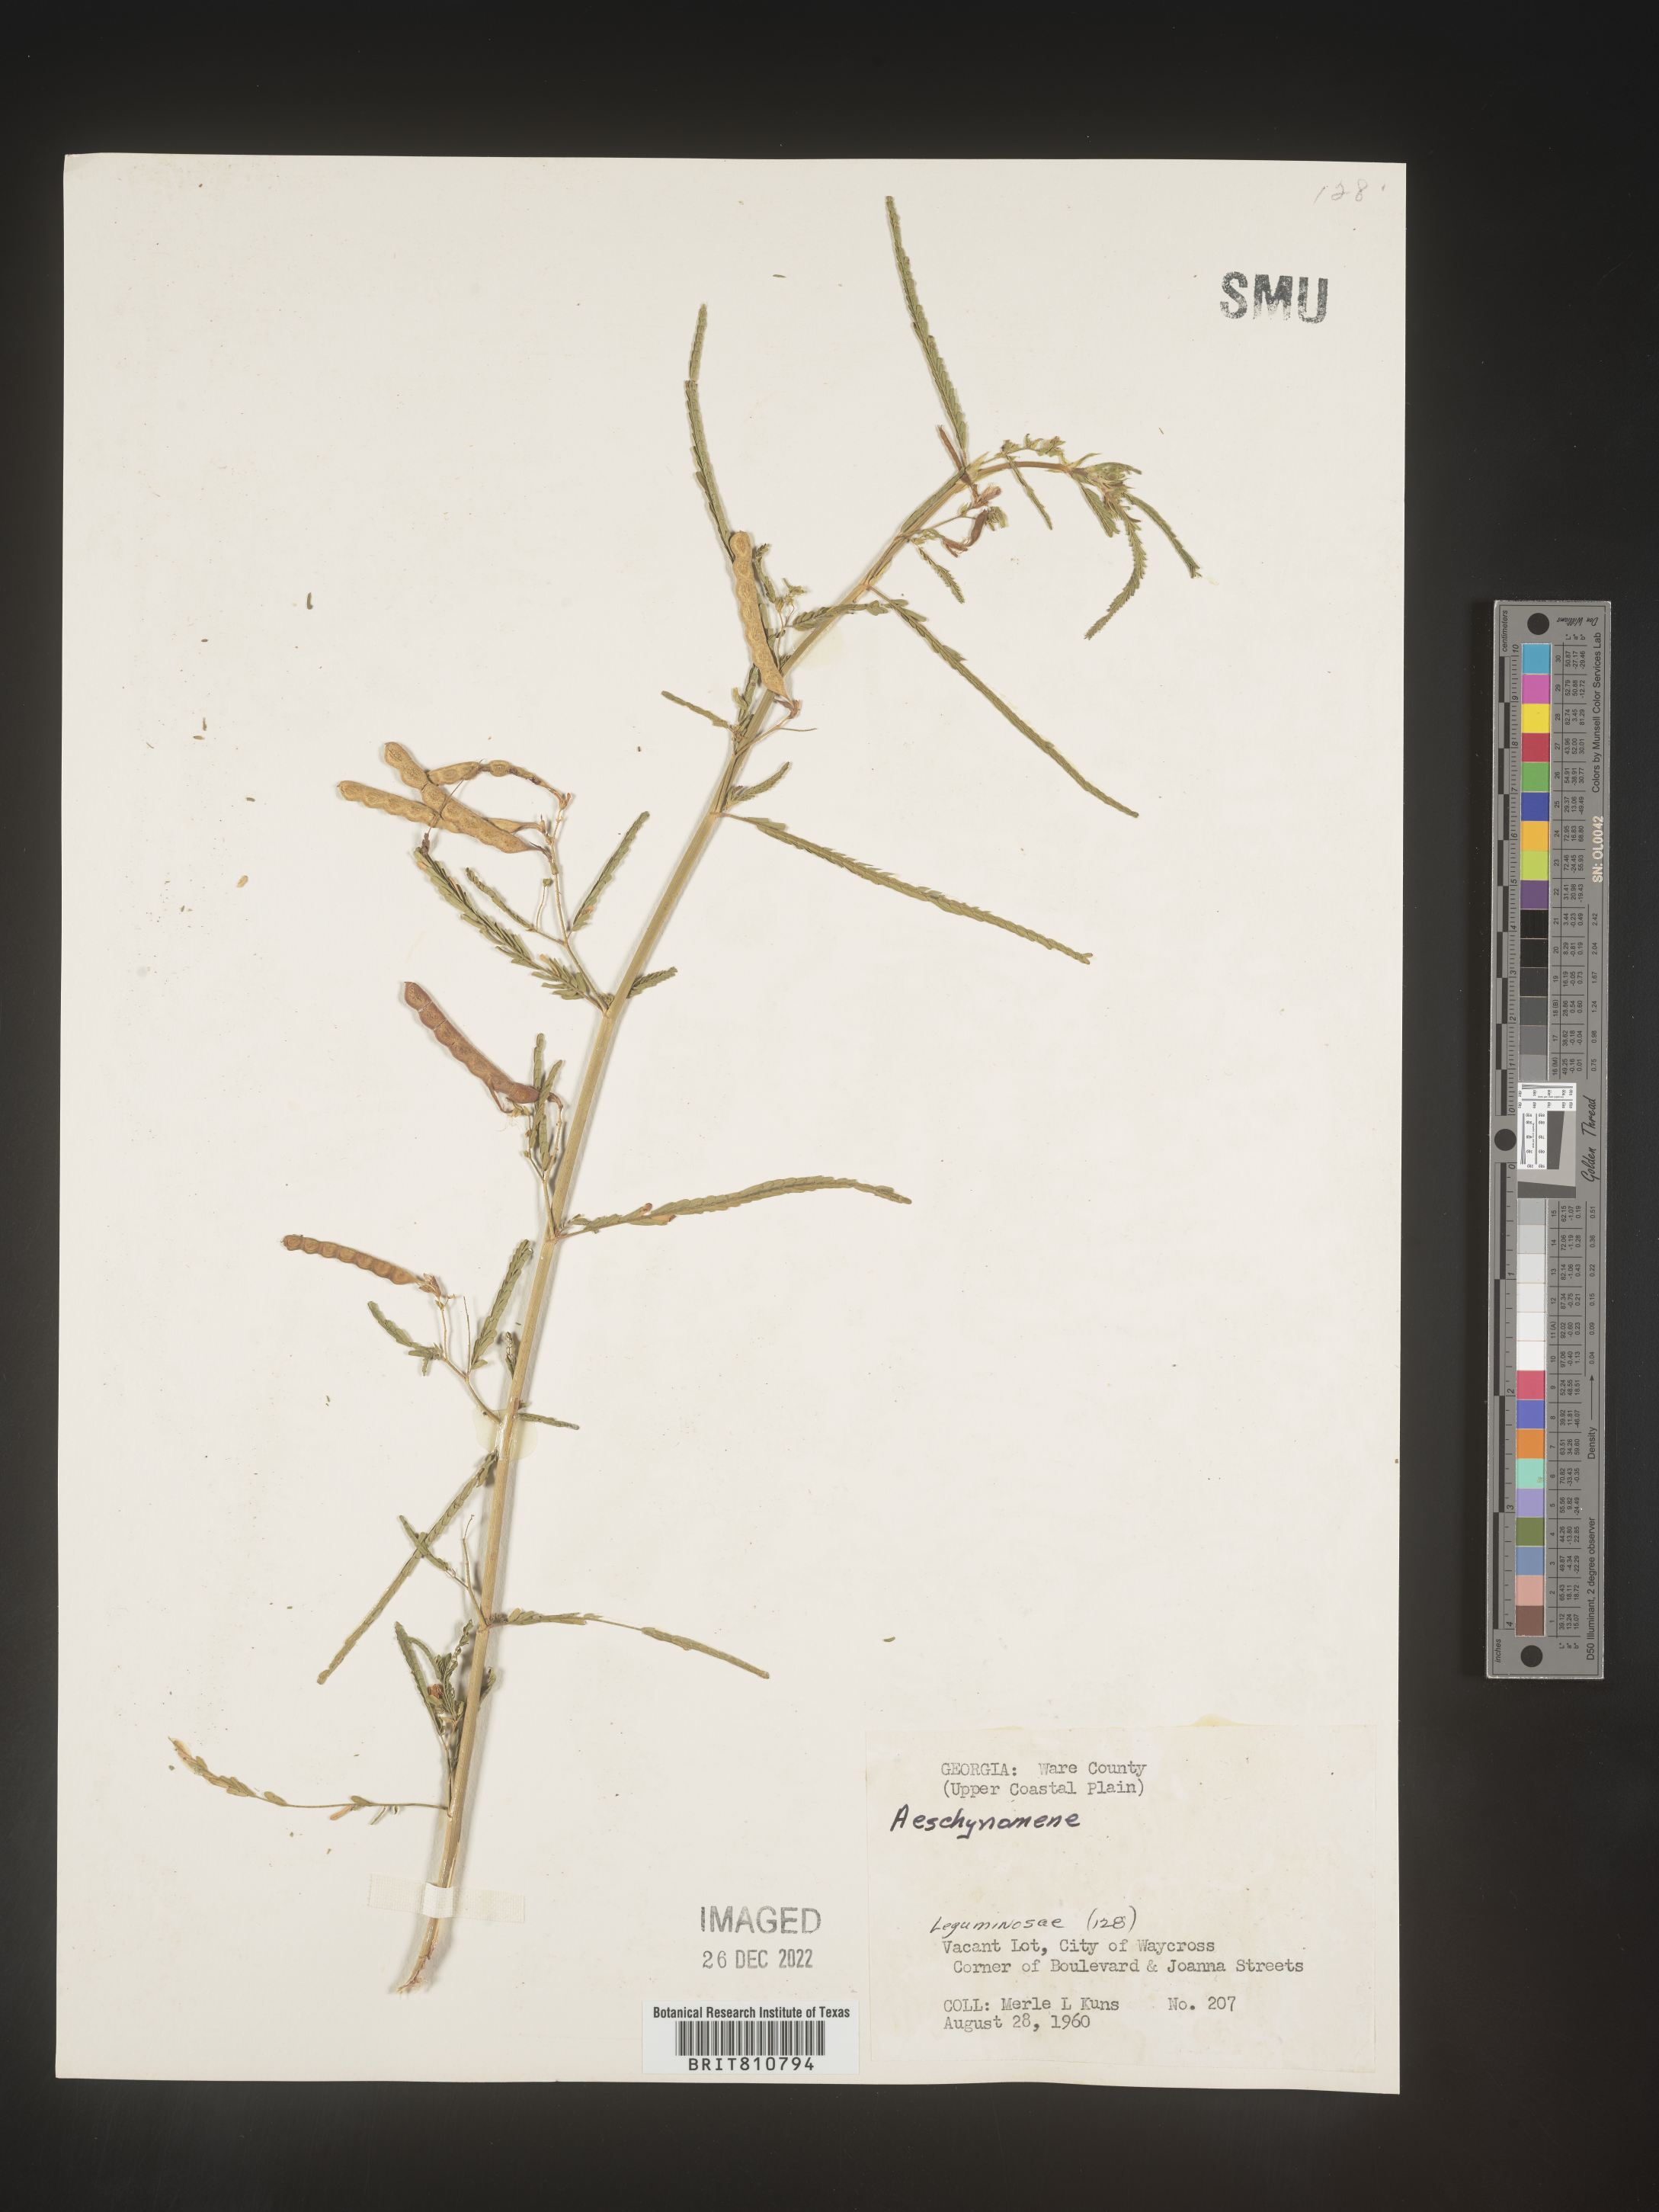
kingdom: Plantae
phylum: Tracheophyta
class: Magnoliopsida
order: Fabales
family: Fabaceae
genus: Aeschynomene
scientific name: Aeschynomene
